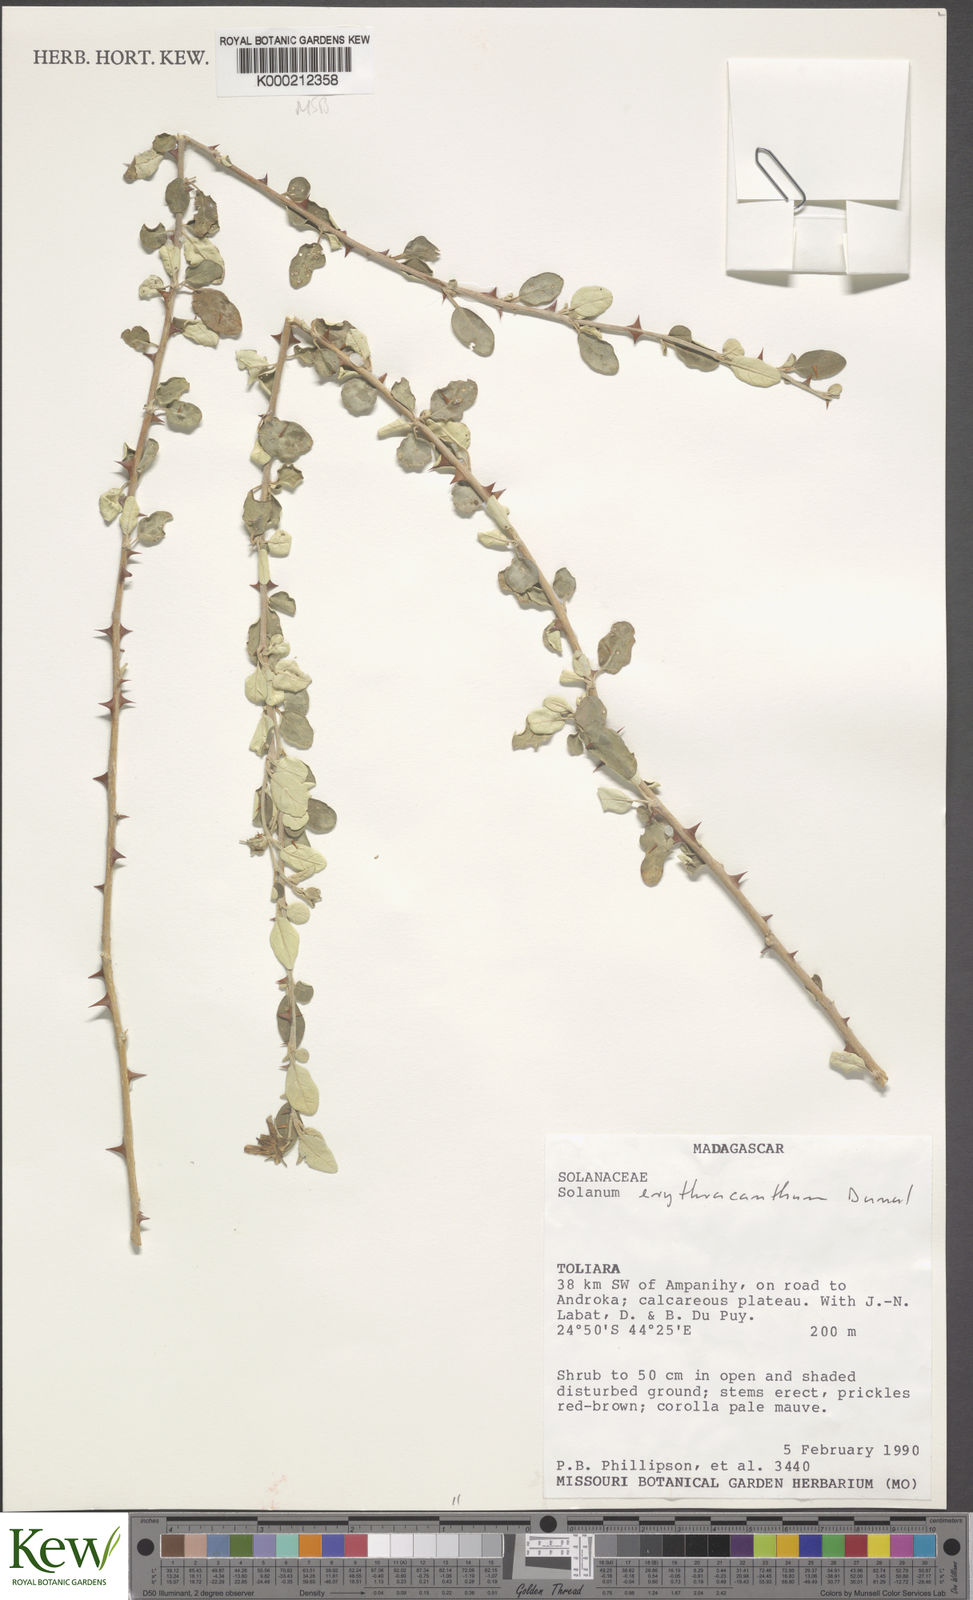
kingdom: Plantae
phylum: Tracheophyta
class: Magnoliopsida
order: Solanales
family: Solanaceae
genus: Solanum
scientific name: Solanum erythracanthum
